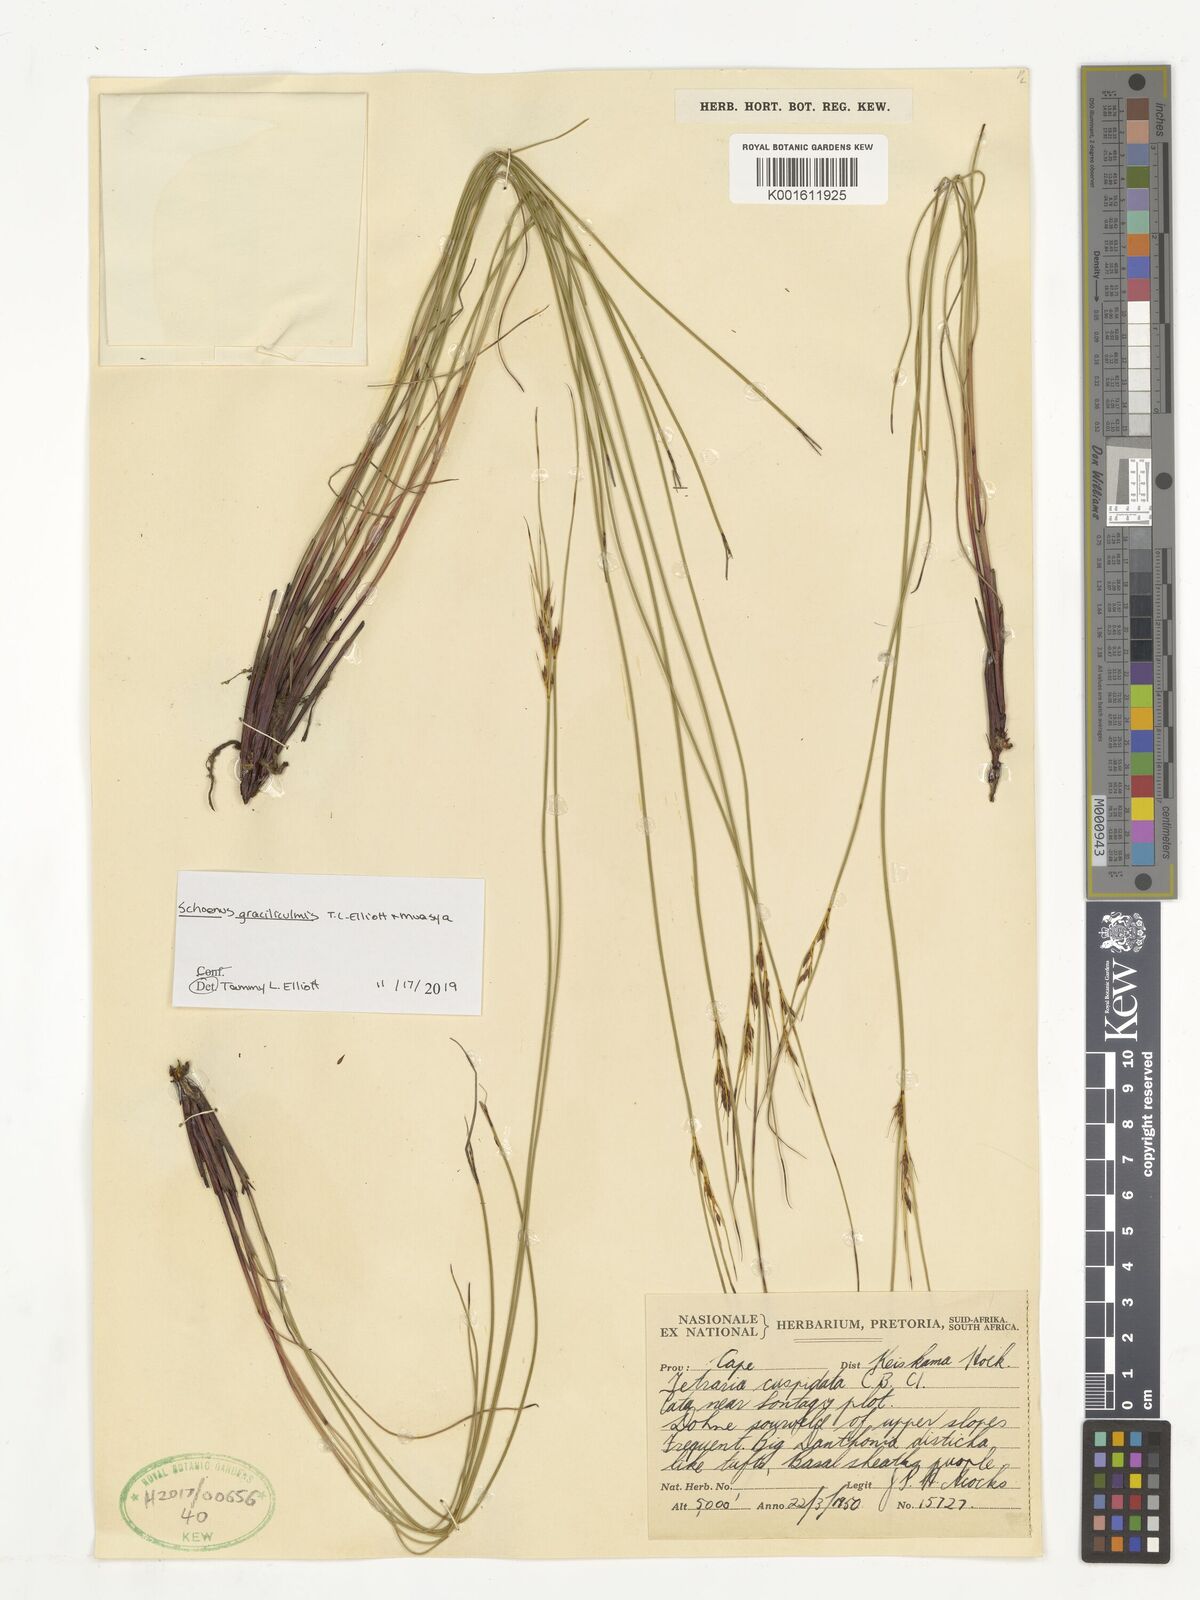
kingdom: Plantae
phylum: Tracheophyta
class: Liliopsida
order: Poales
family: Cyperaceae
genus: Schoenus
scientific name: Schoenus gracillimus
